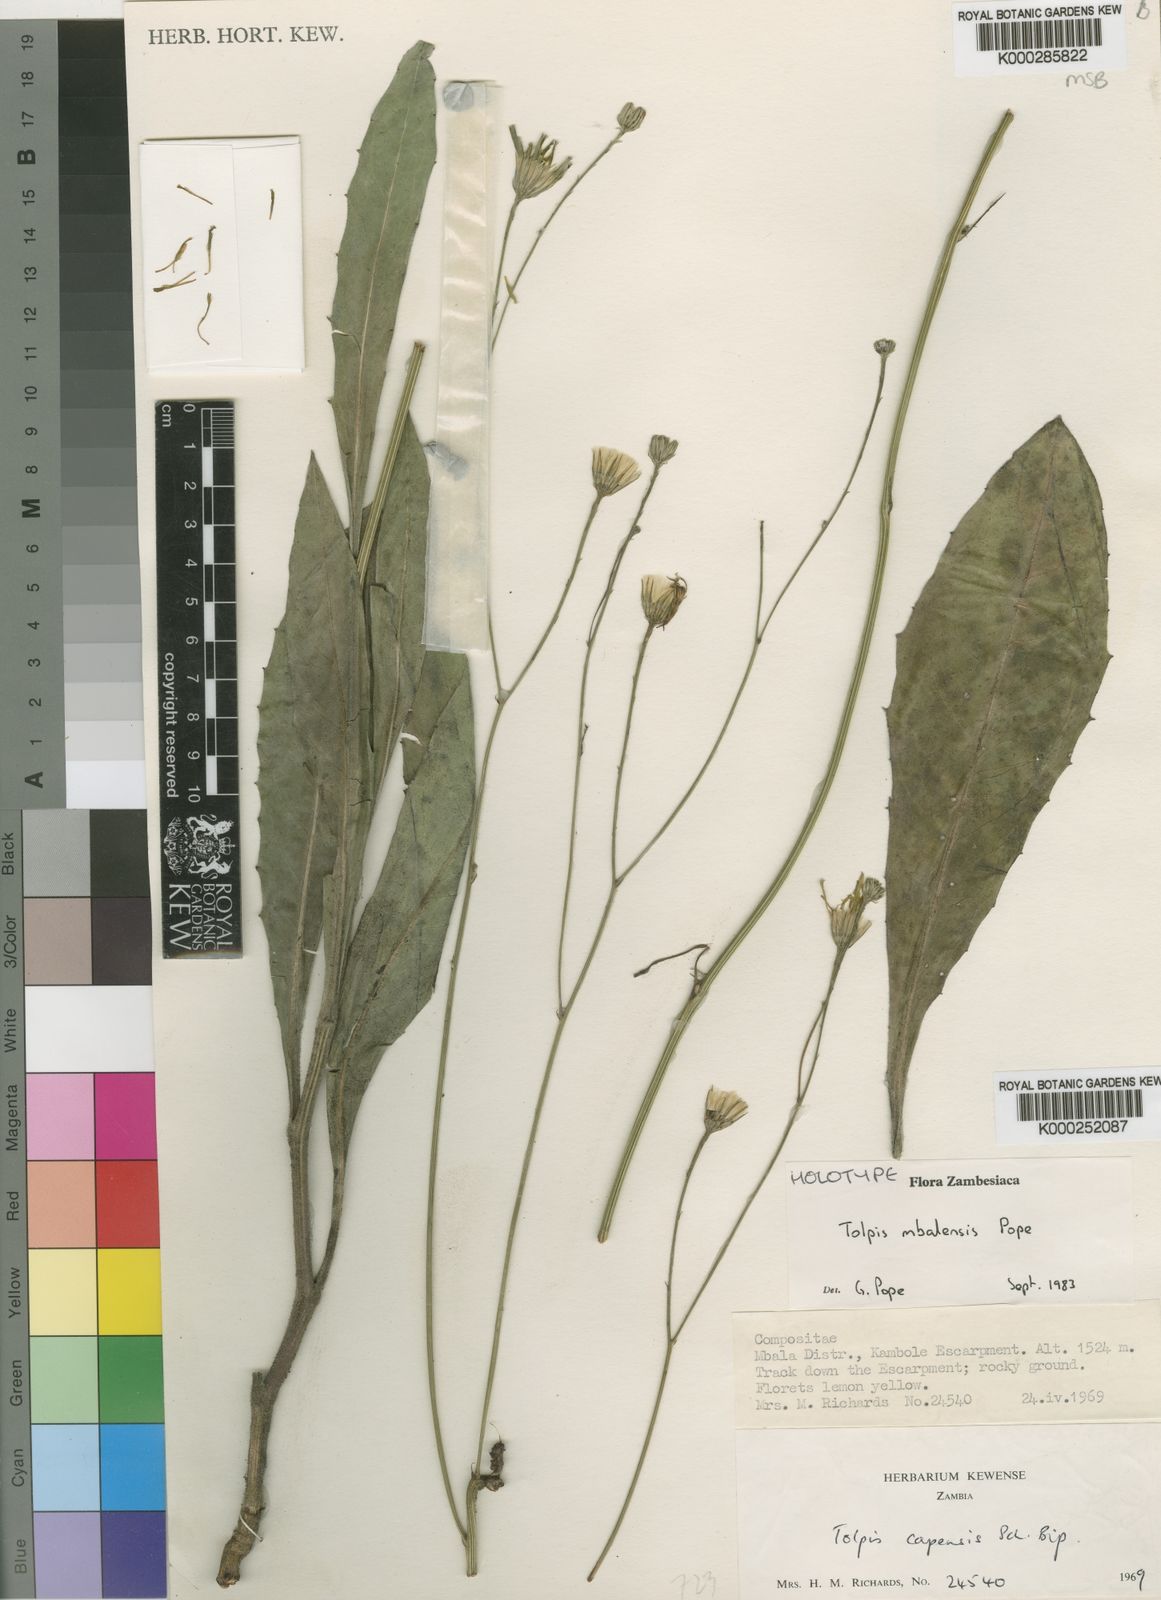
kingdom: Plantae
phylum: Tracheophyta
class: Magnoliopsida
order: Asterales
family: Asteraceae
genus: Tolpis
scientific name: Tolpis mbalensis
